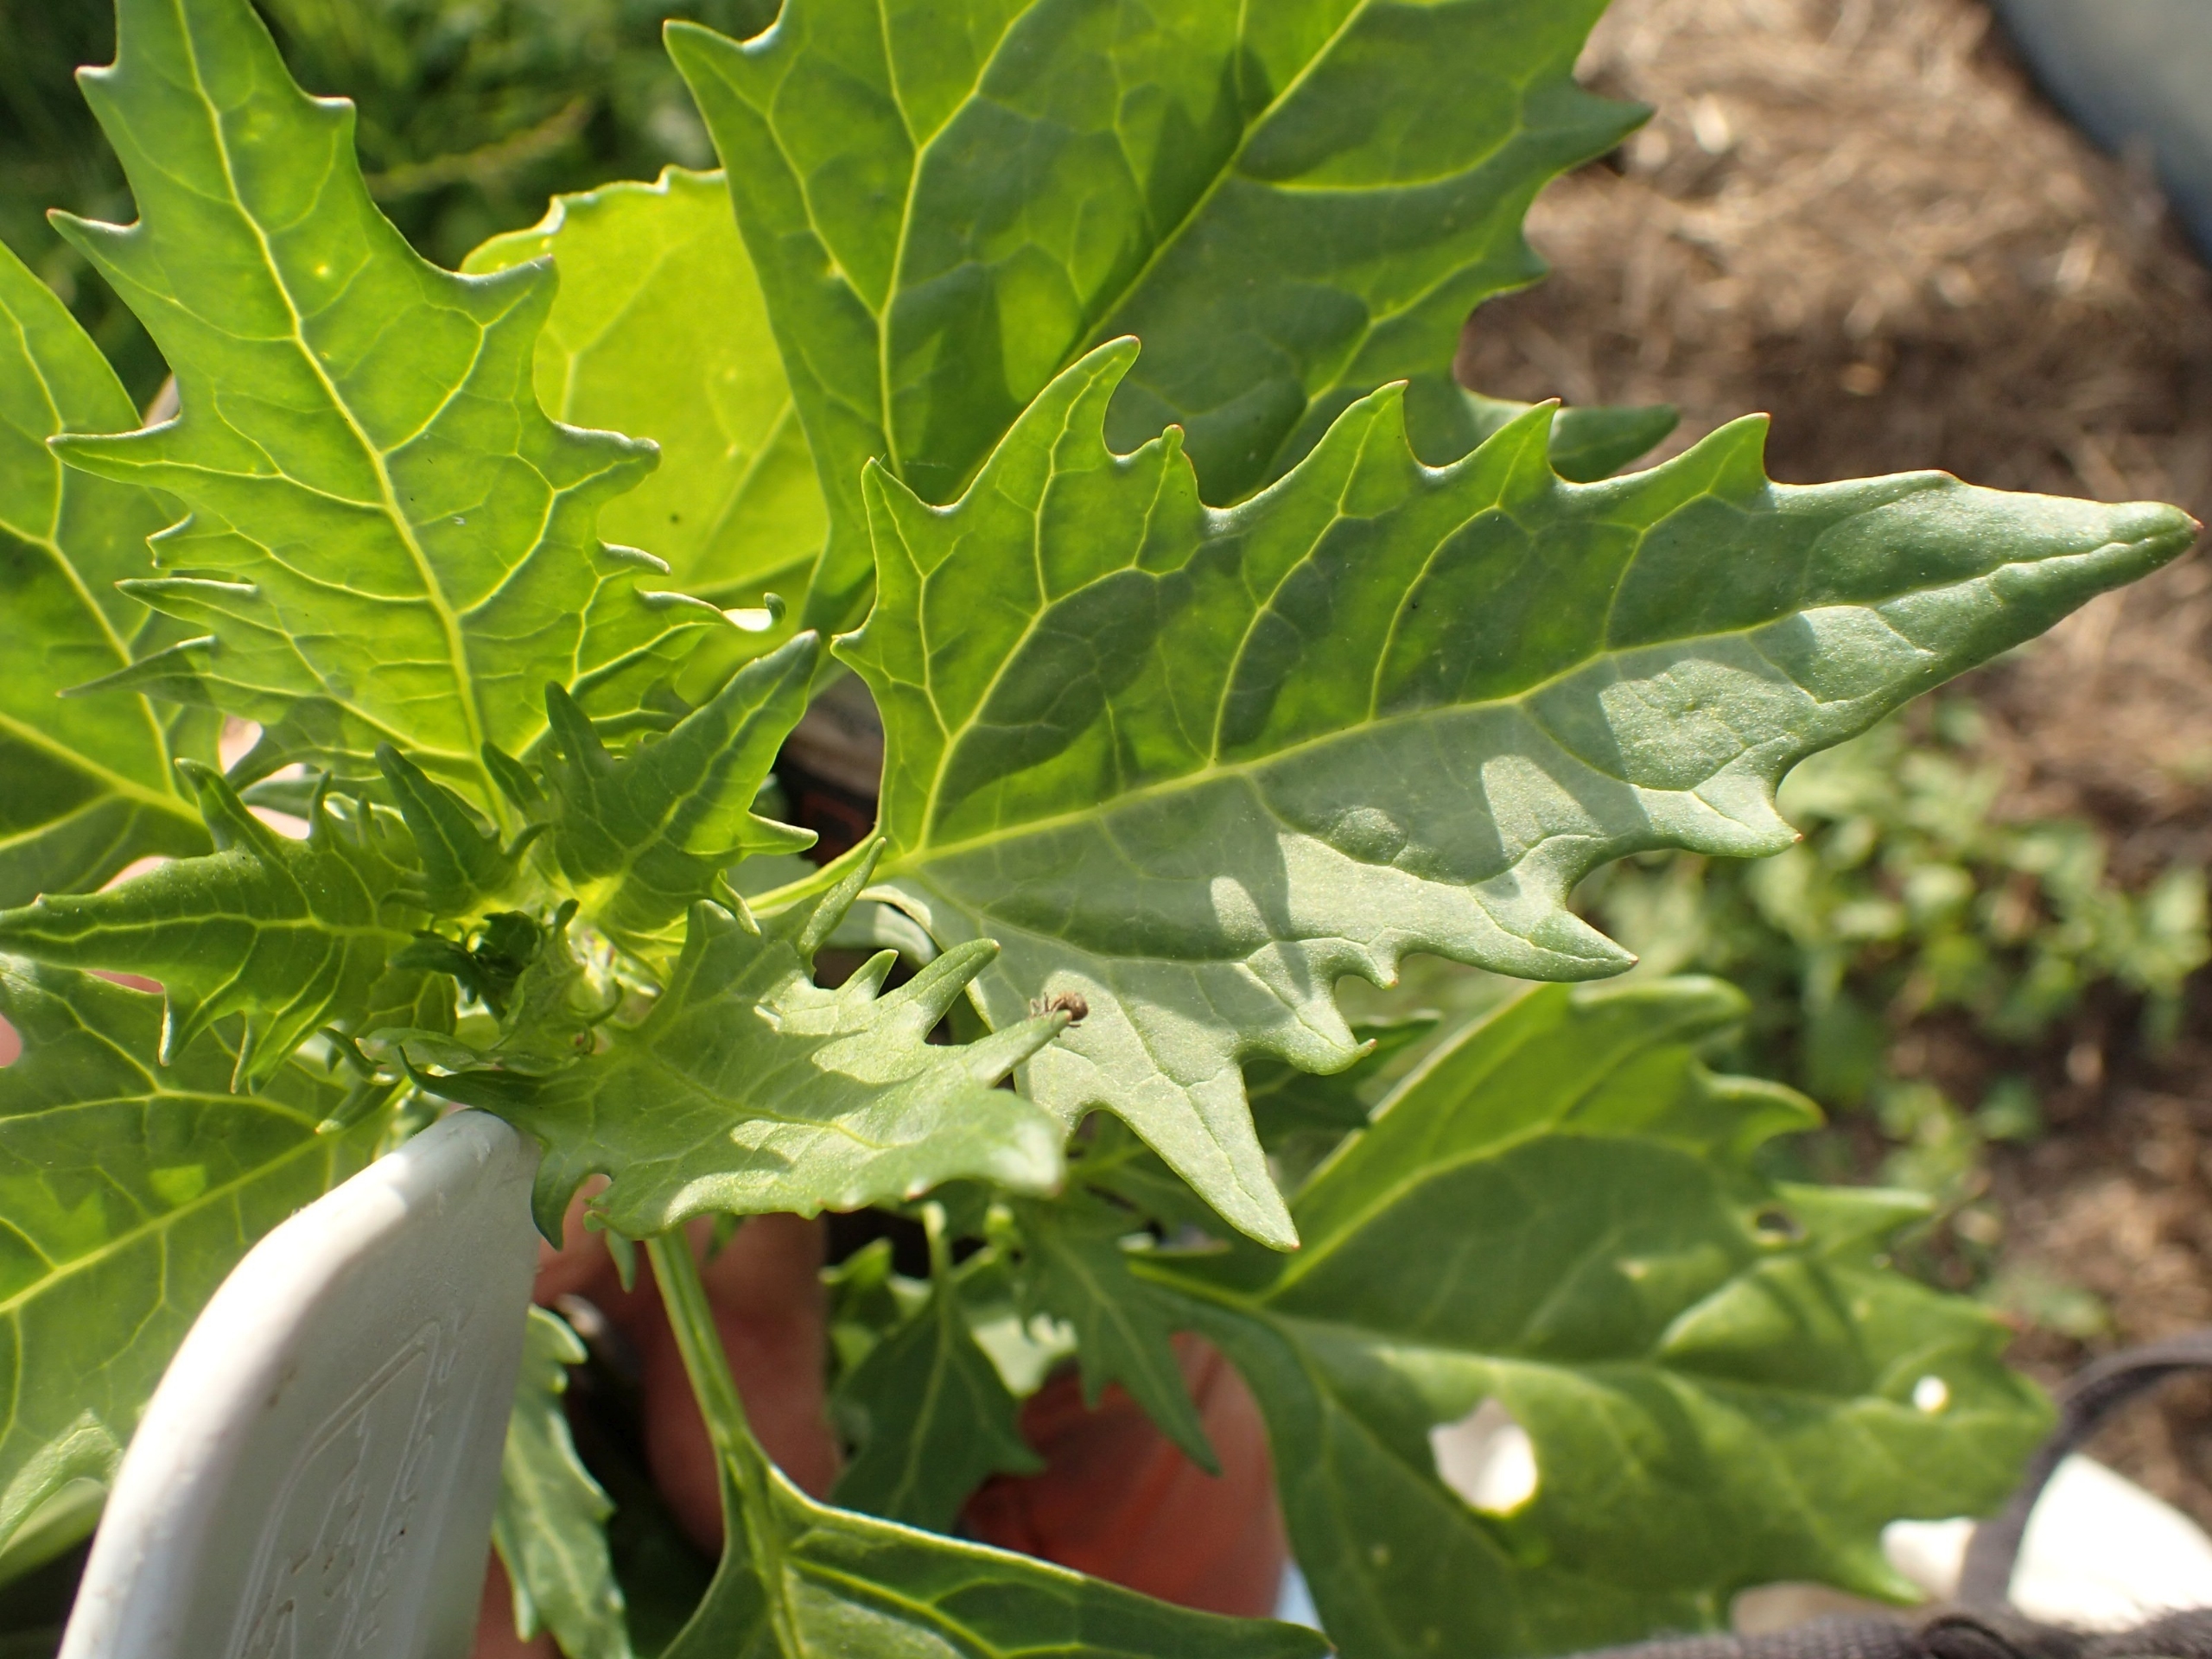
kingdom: Plantae
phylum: Tracheophyta
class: Magnoliopsida
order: Caryophyllales
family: Amaranthaceae
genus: Oxybasis
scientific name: Oxybasis rubra
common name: Rød gåsefod
